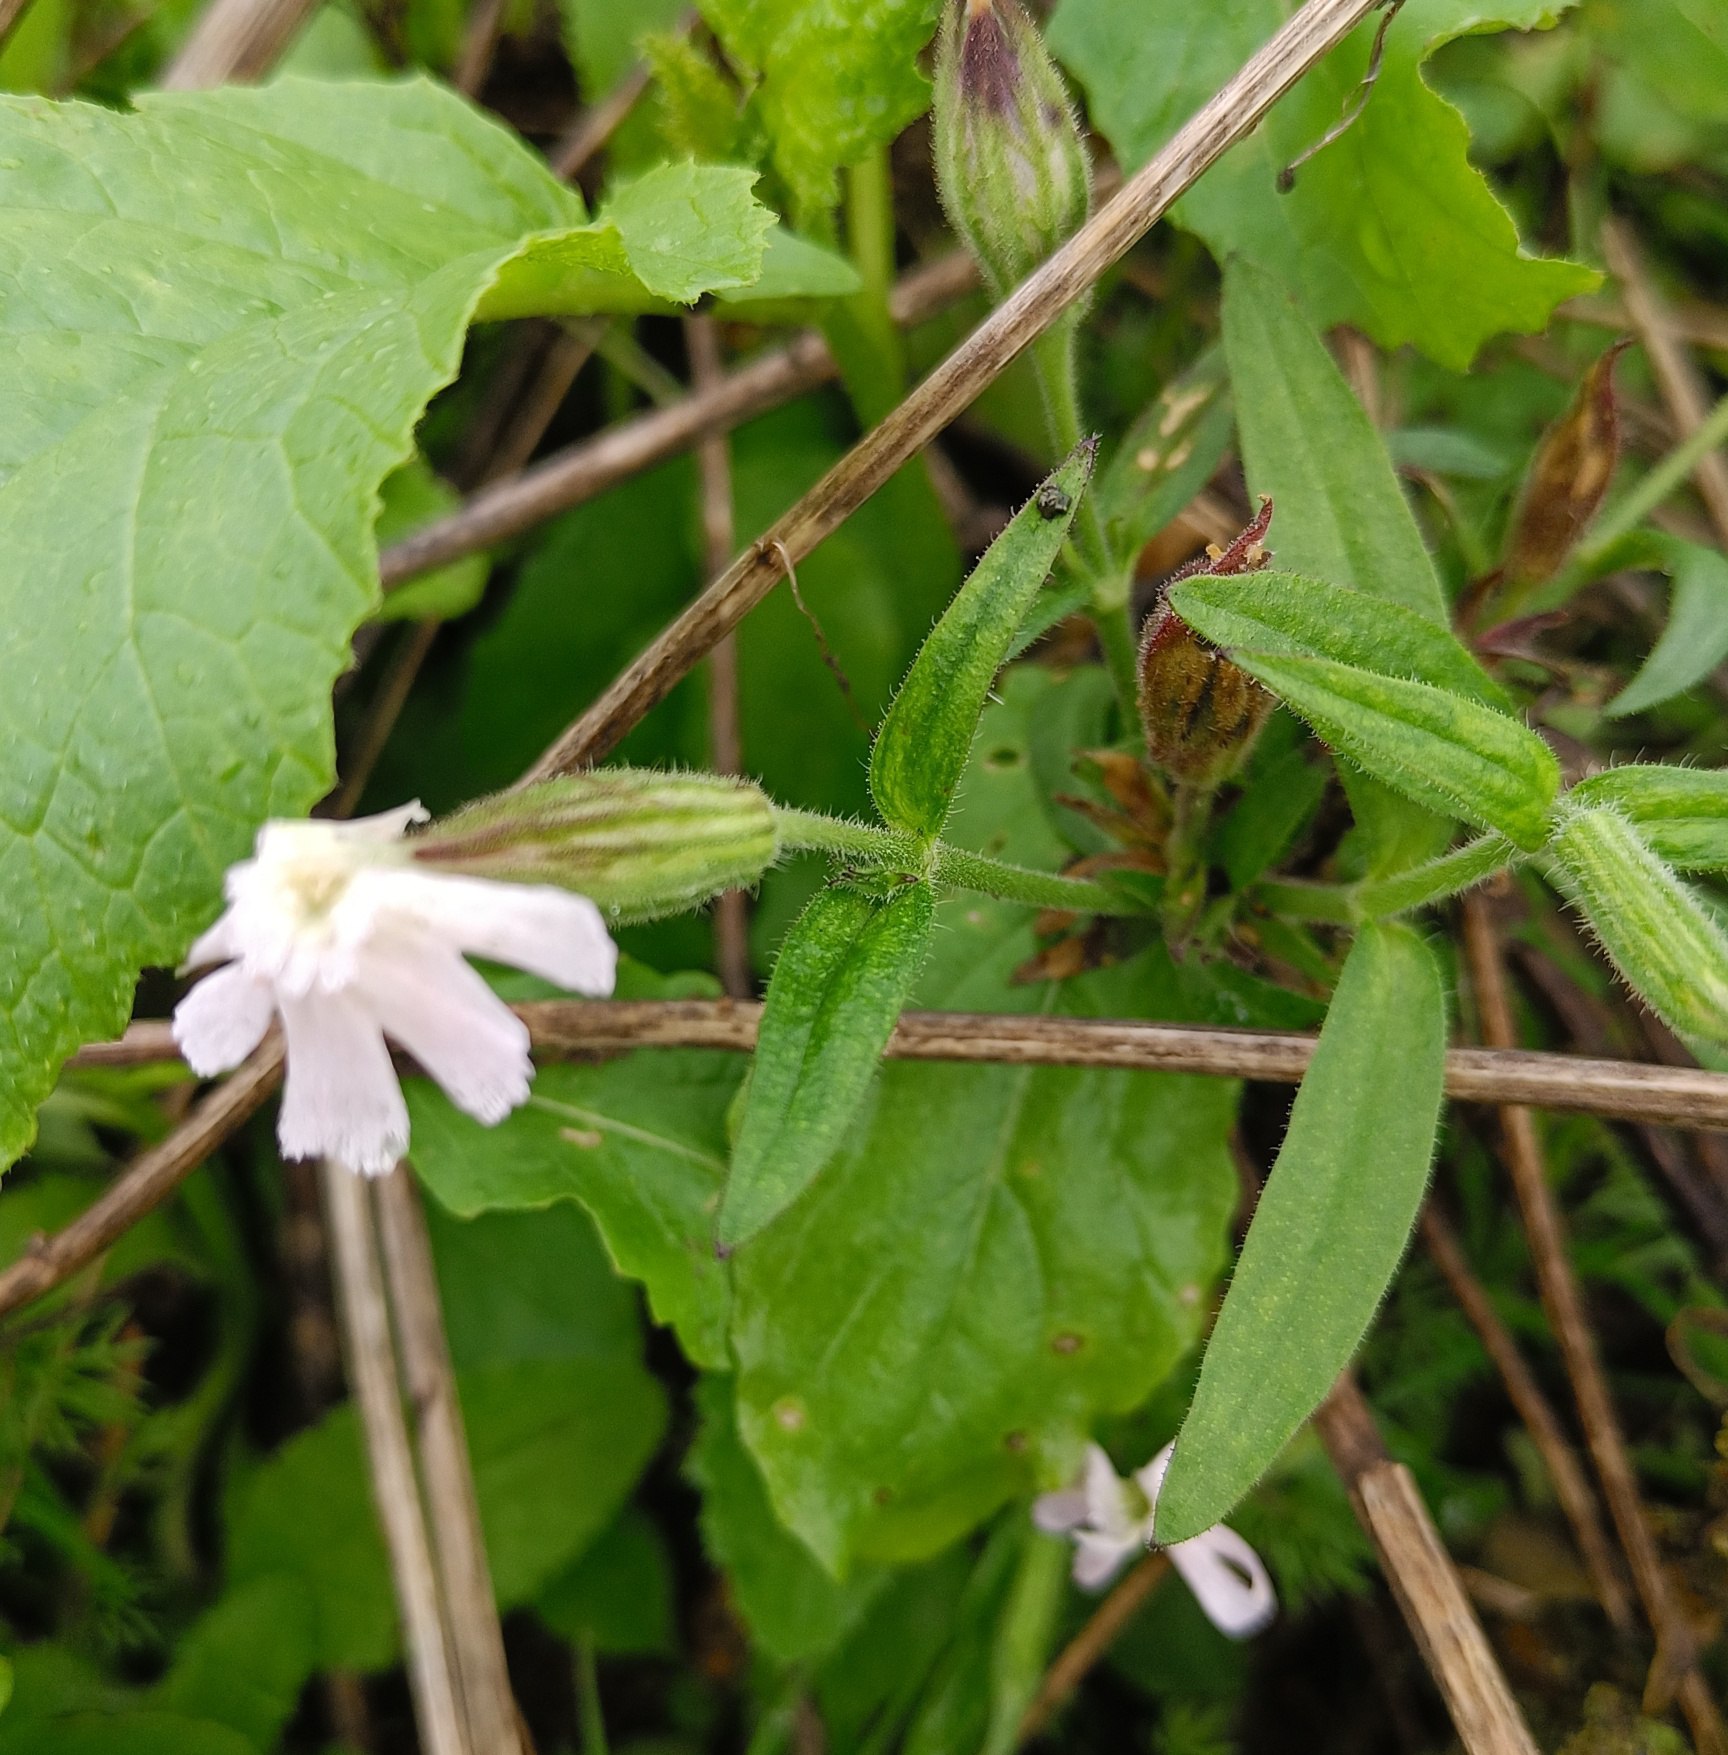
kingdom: Plantae
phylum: Tracheophyta
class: Magnoliopsida
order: Caryophyllales
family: Caryophyllaceae
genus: Silene
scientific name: Silene latifolia
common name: Aftenpragtstjerne
